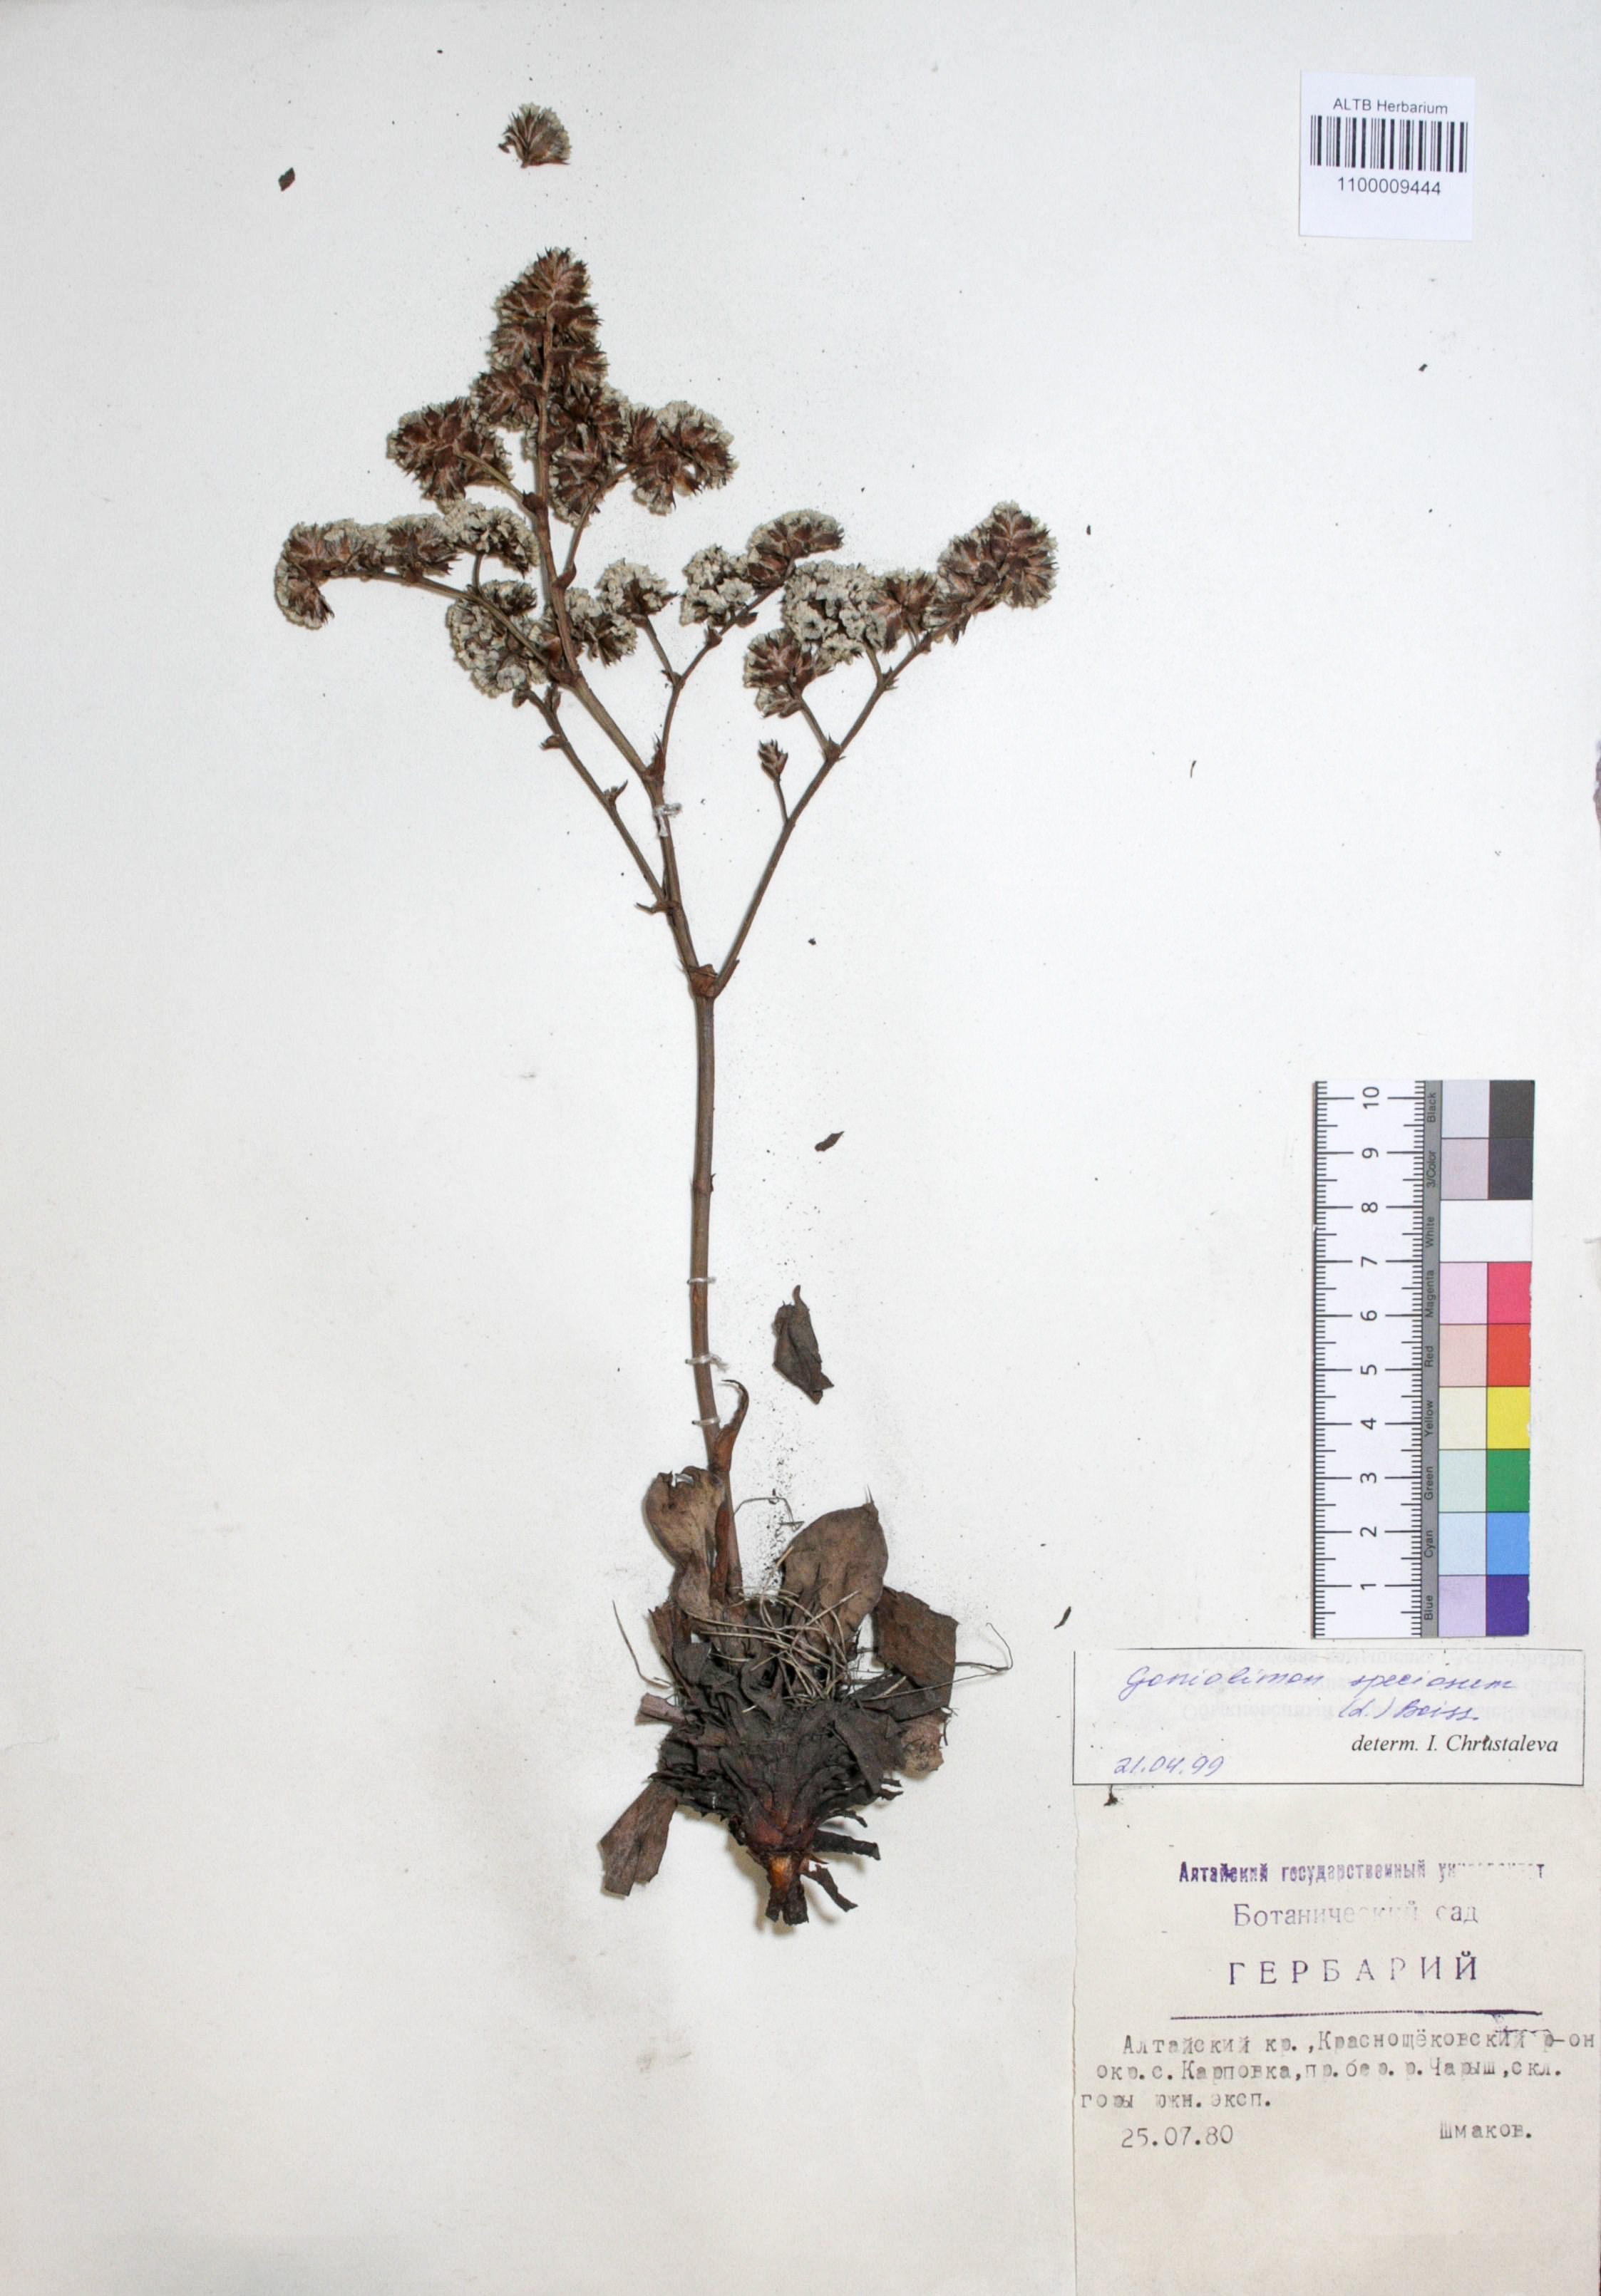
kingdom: Plantae
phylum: Tracheophyta
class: Magnoliopsida
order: Caryophyllales
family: Plumbaginaceae
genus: Goniolimon
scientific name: Goniolimon speciosum
